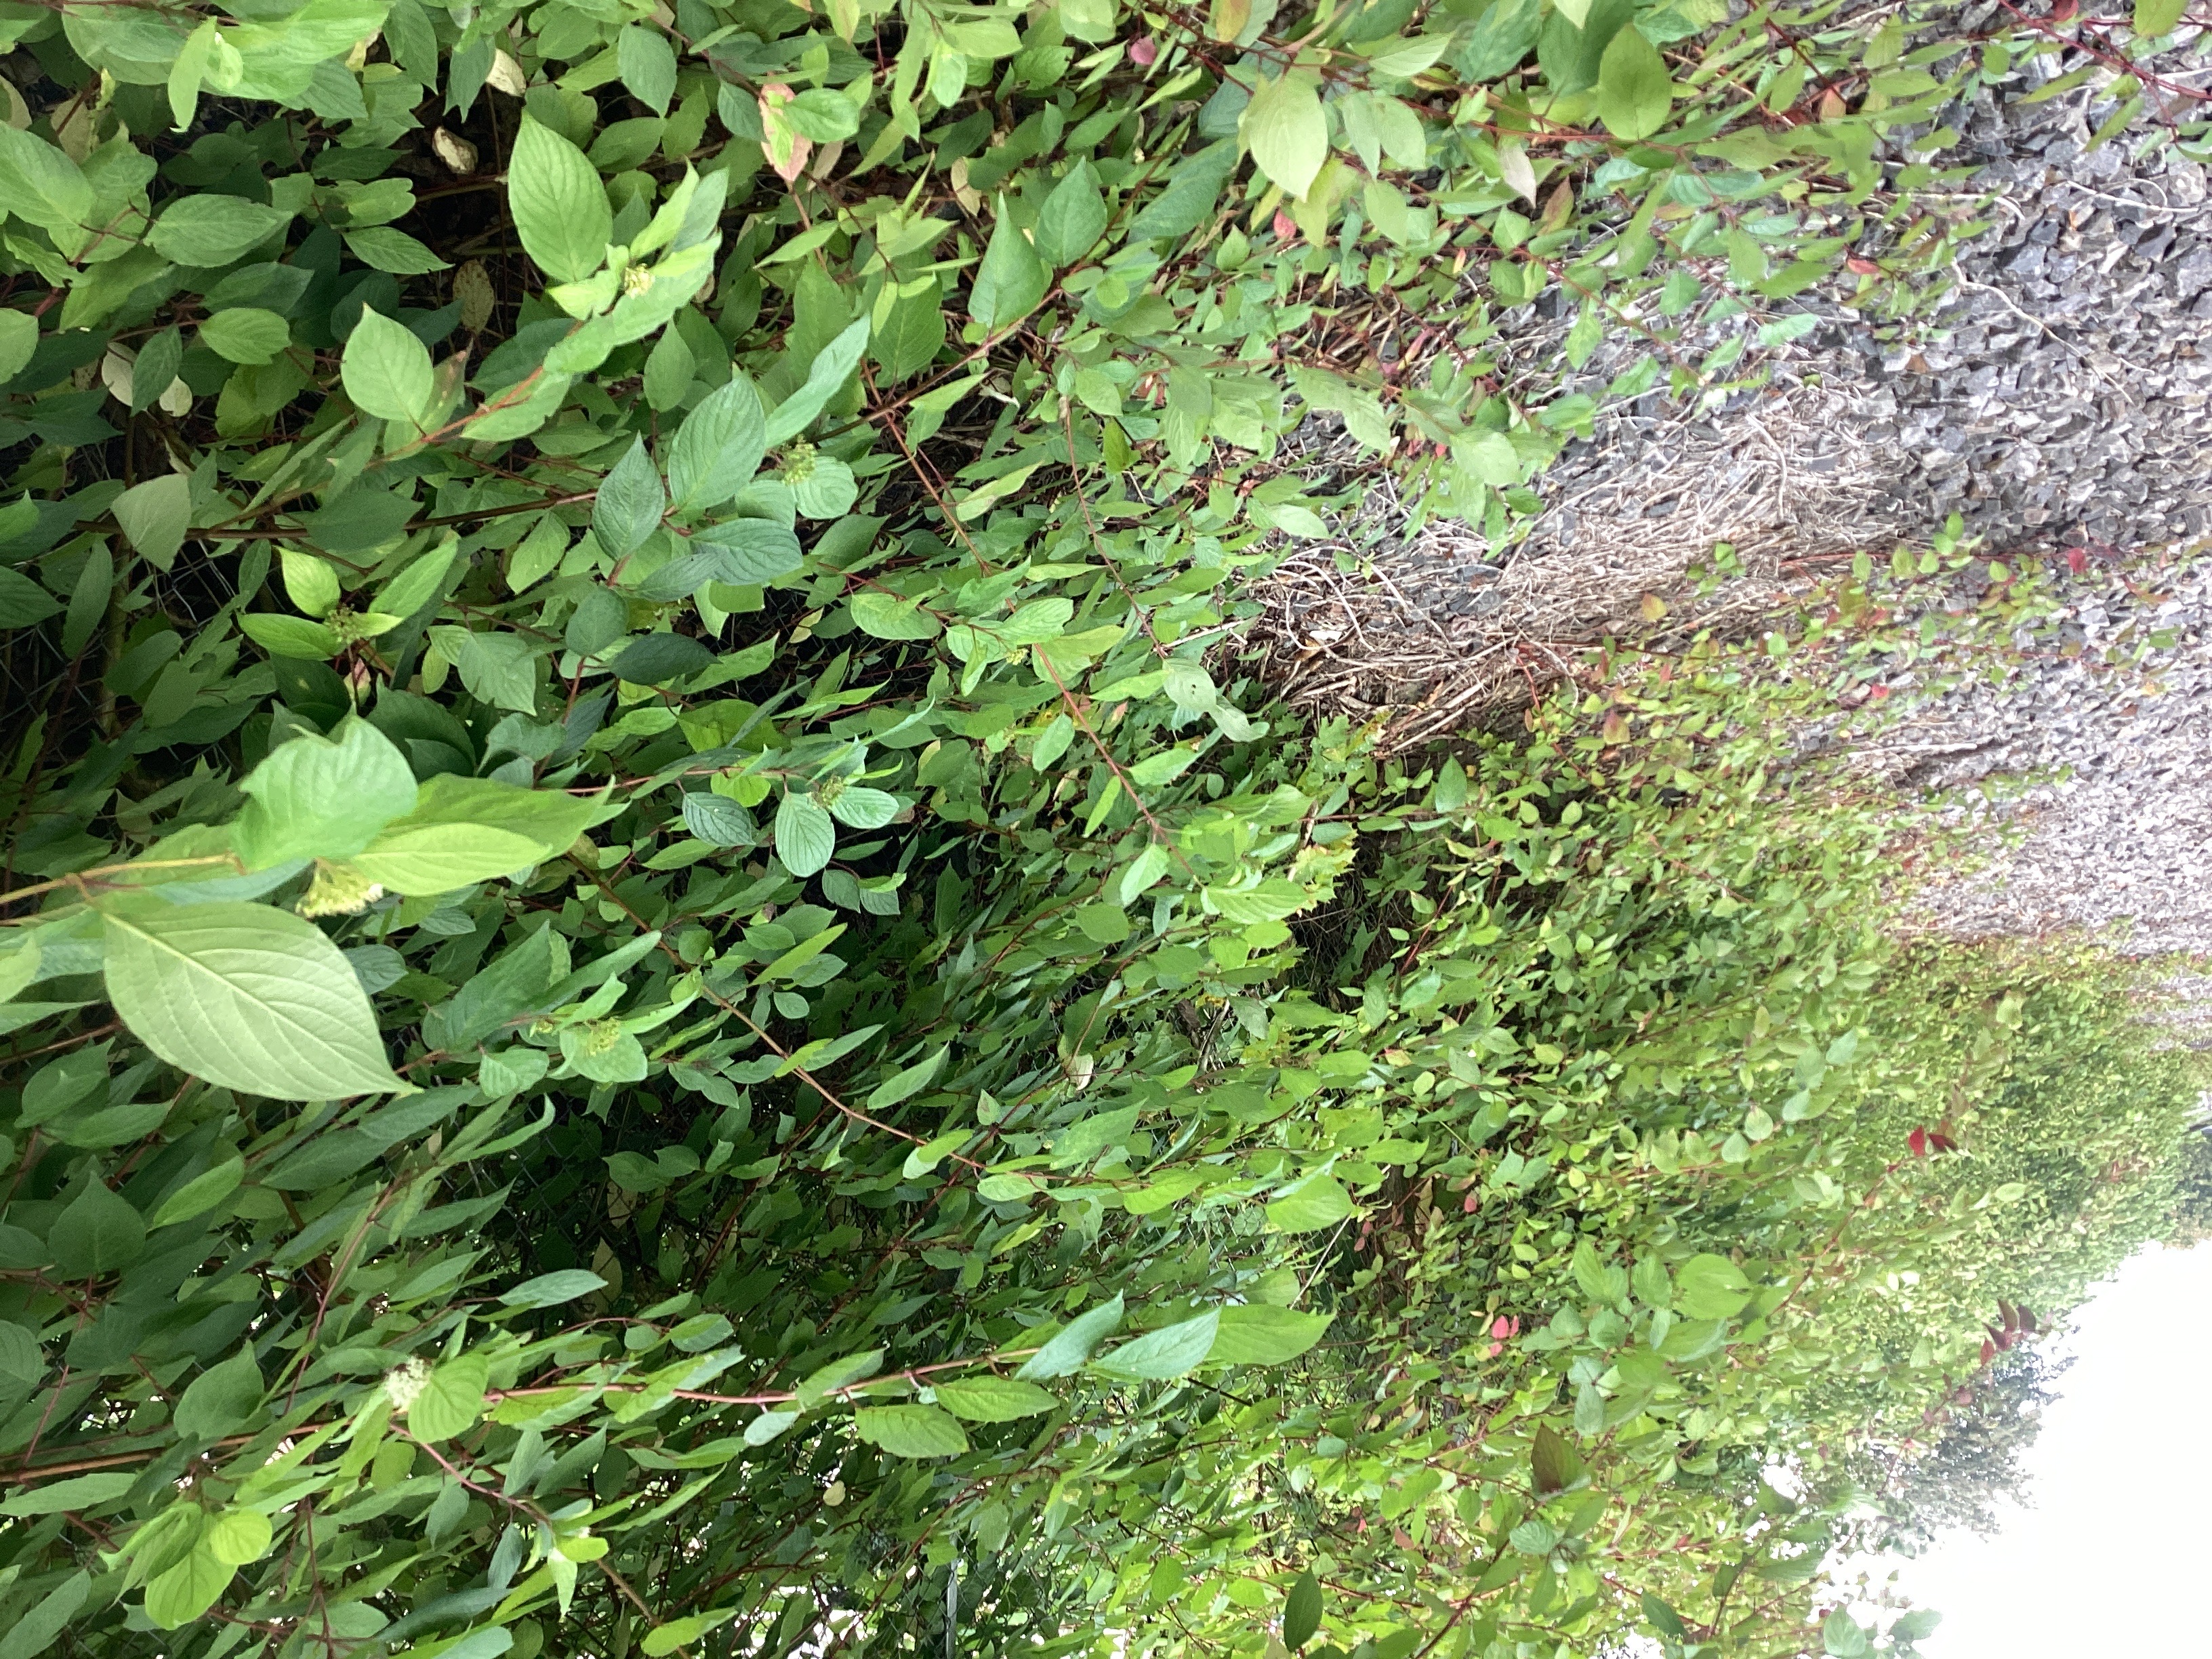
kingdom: Plantae
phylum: Tracheophyta
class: Magnoliopsida
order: Cornales
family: Cornaceae
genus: Cornus
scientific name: Cornus sericea
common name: alaskakornell
